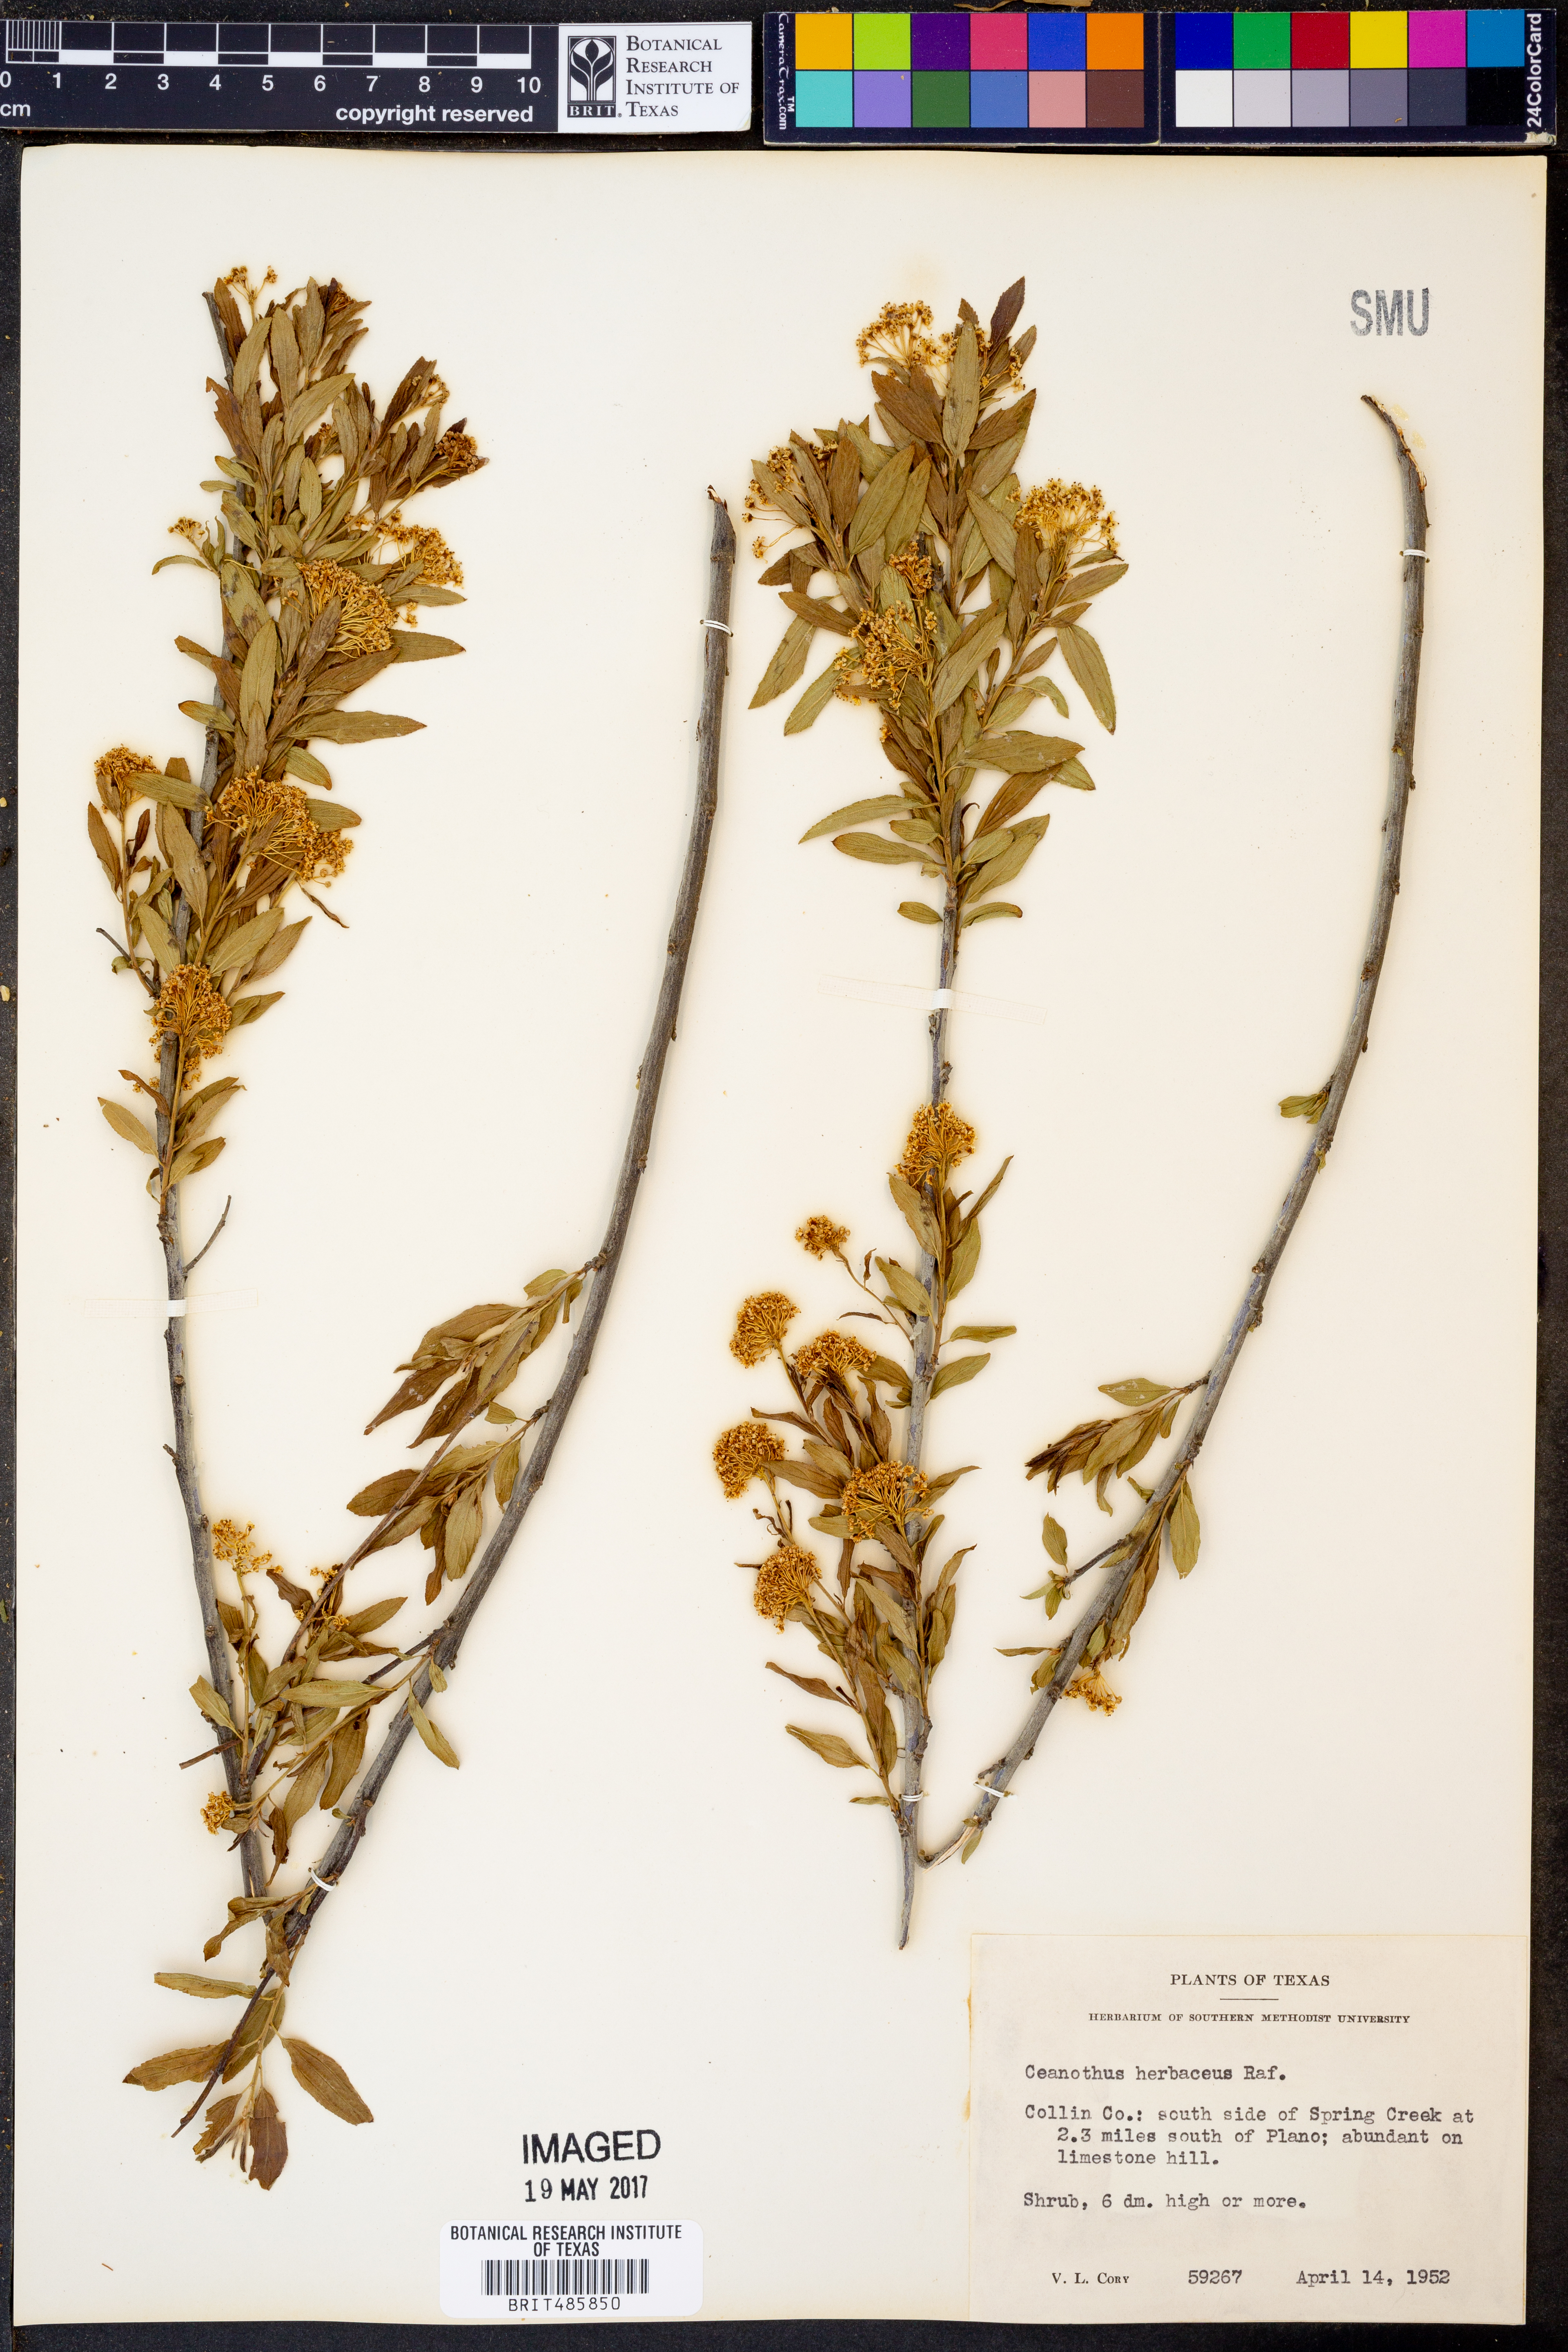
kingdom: Plantae
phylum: Tracheophyta
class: Magnoliopsida
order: Rosales
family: Rhamnaceae
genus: Ceanothus
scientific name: Ceanothus herbaceus
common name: Inland ceanothus
